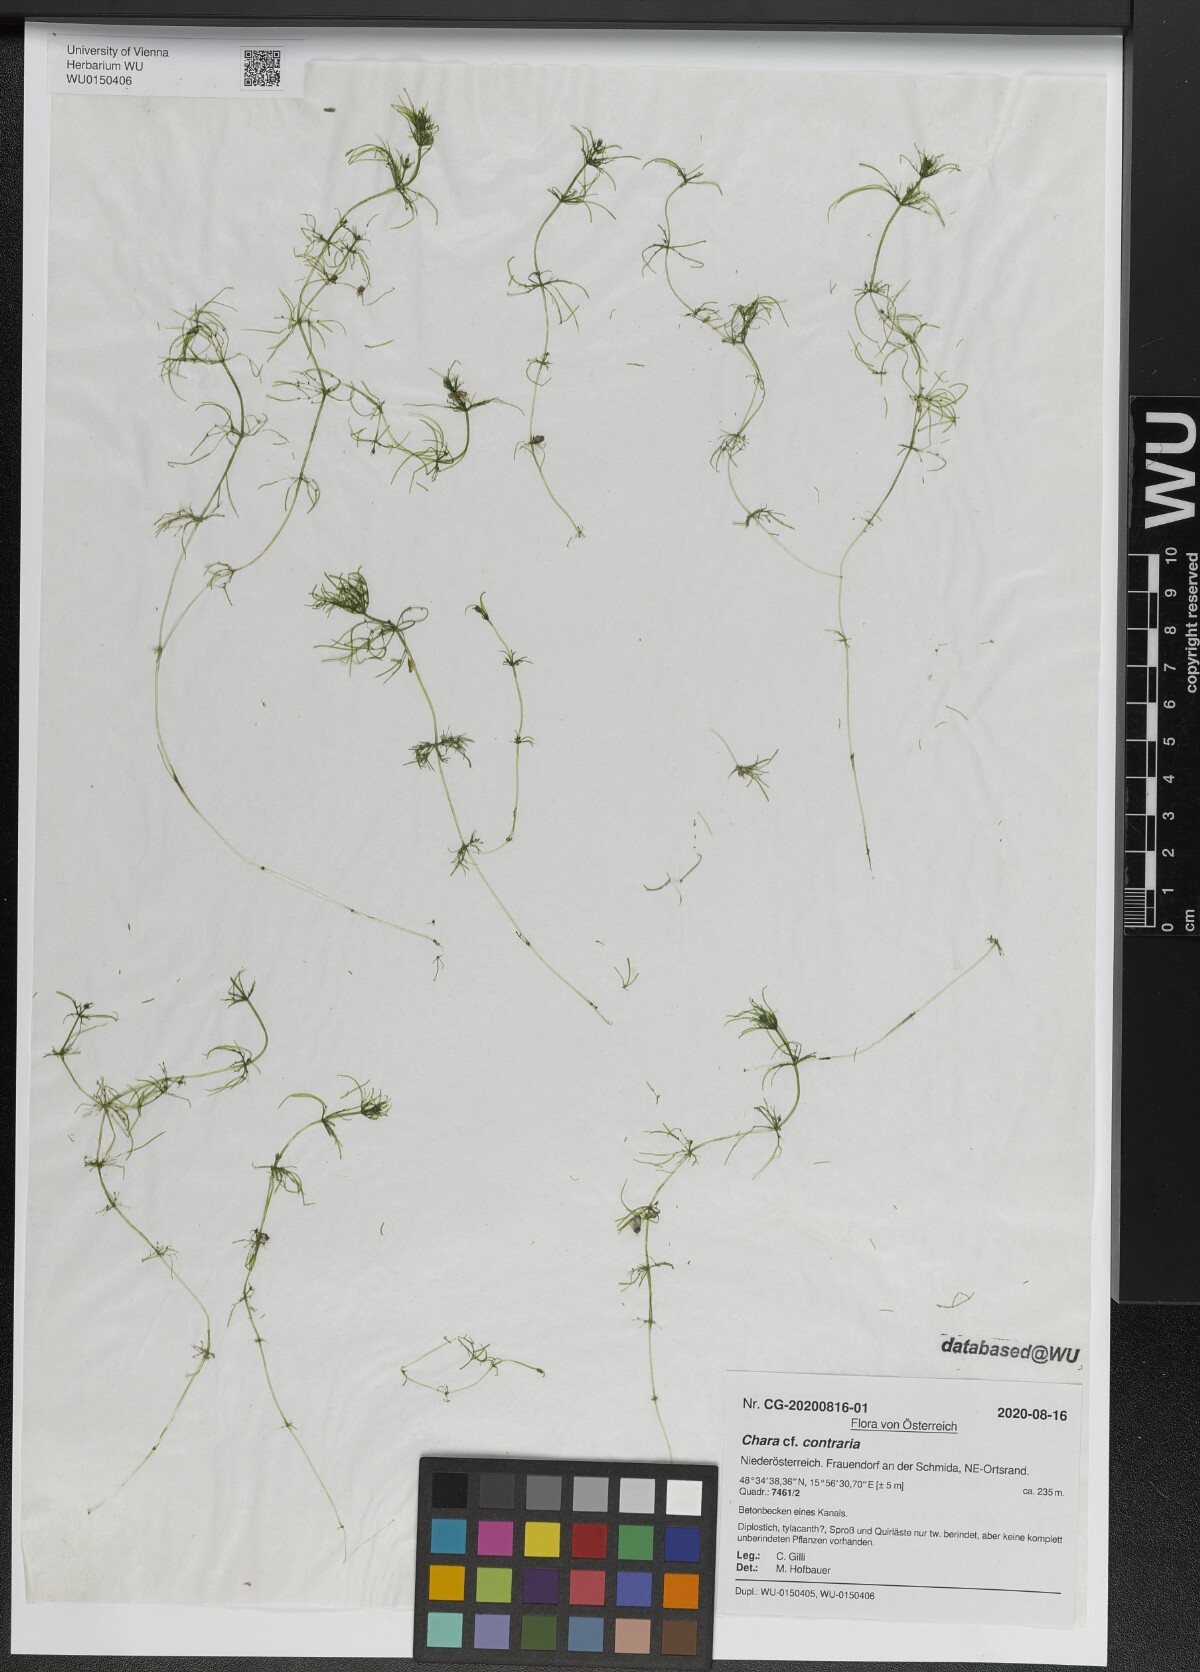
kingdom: Plantae
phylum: Charophyta
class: Charophyceae
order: Charales
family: Characeae
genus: Chara
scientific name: Chara contraria
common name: Opposite stonewort
